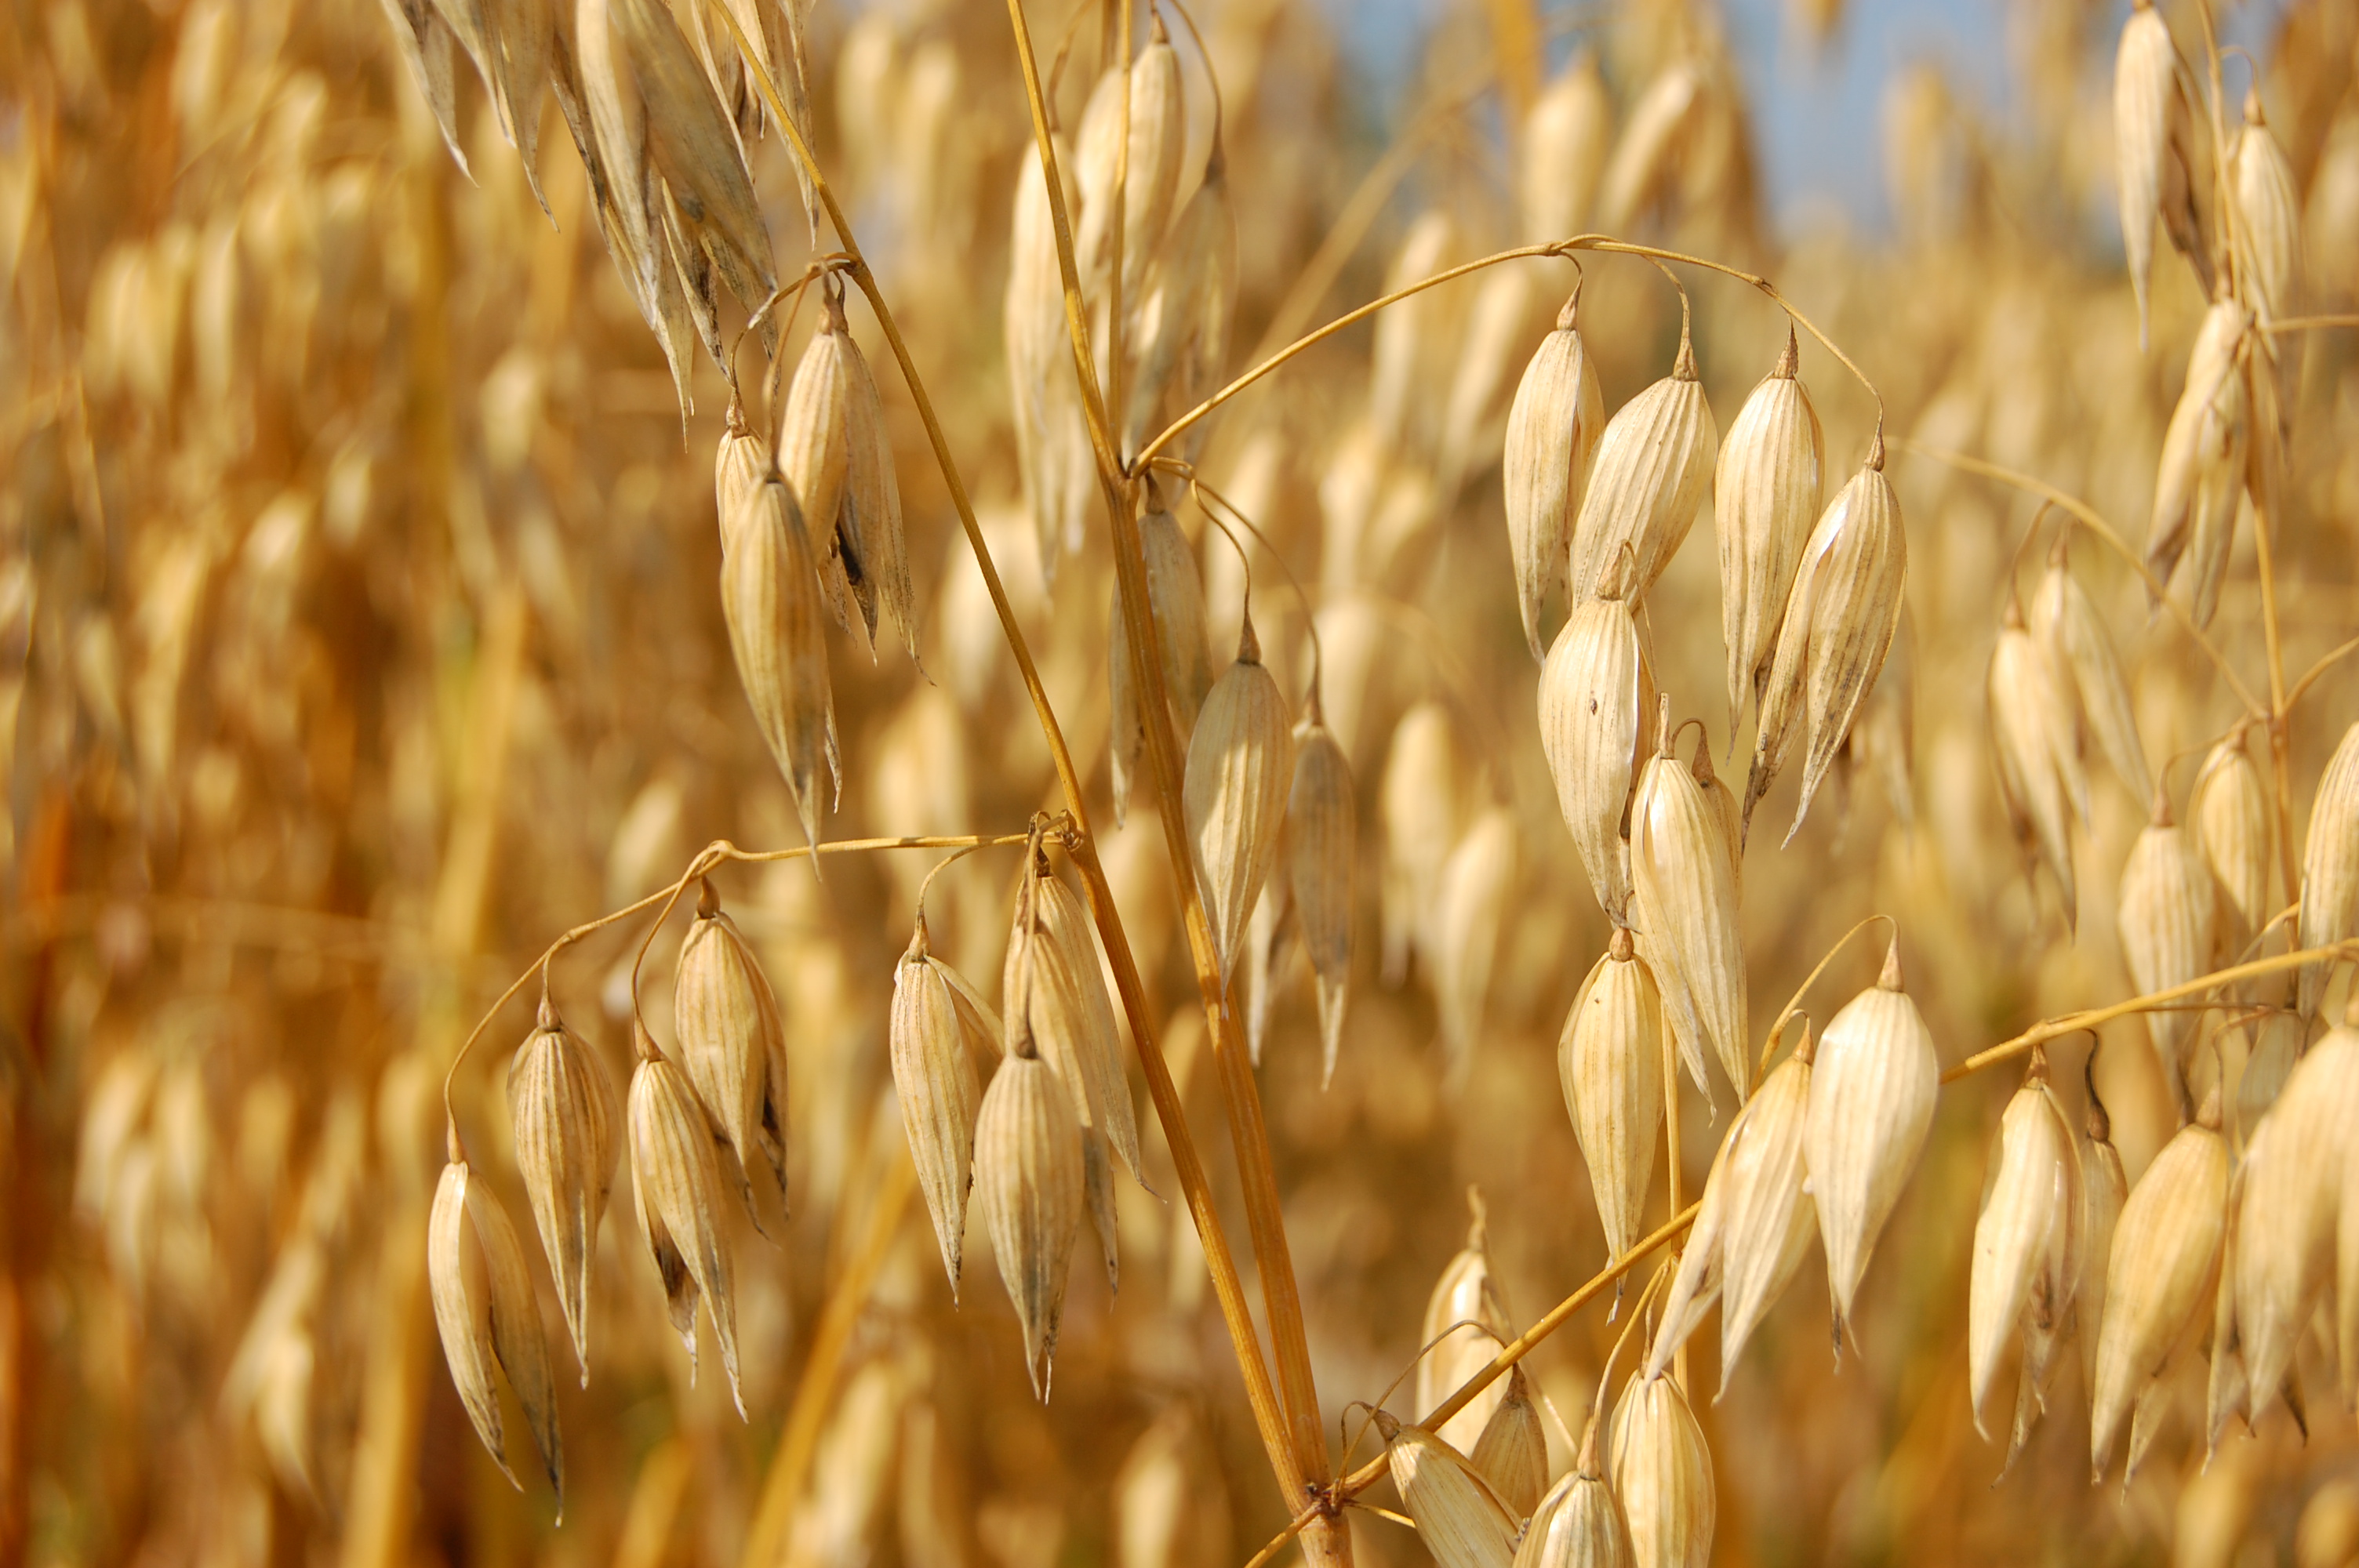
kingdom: Plantae
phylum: Tracheophyta
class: Liliopsida
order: Poales
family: Poaceae
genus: Avena
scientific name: Avena sativa
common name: Oat
